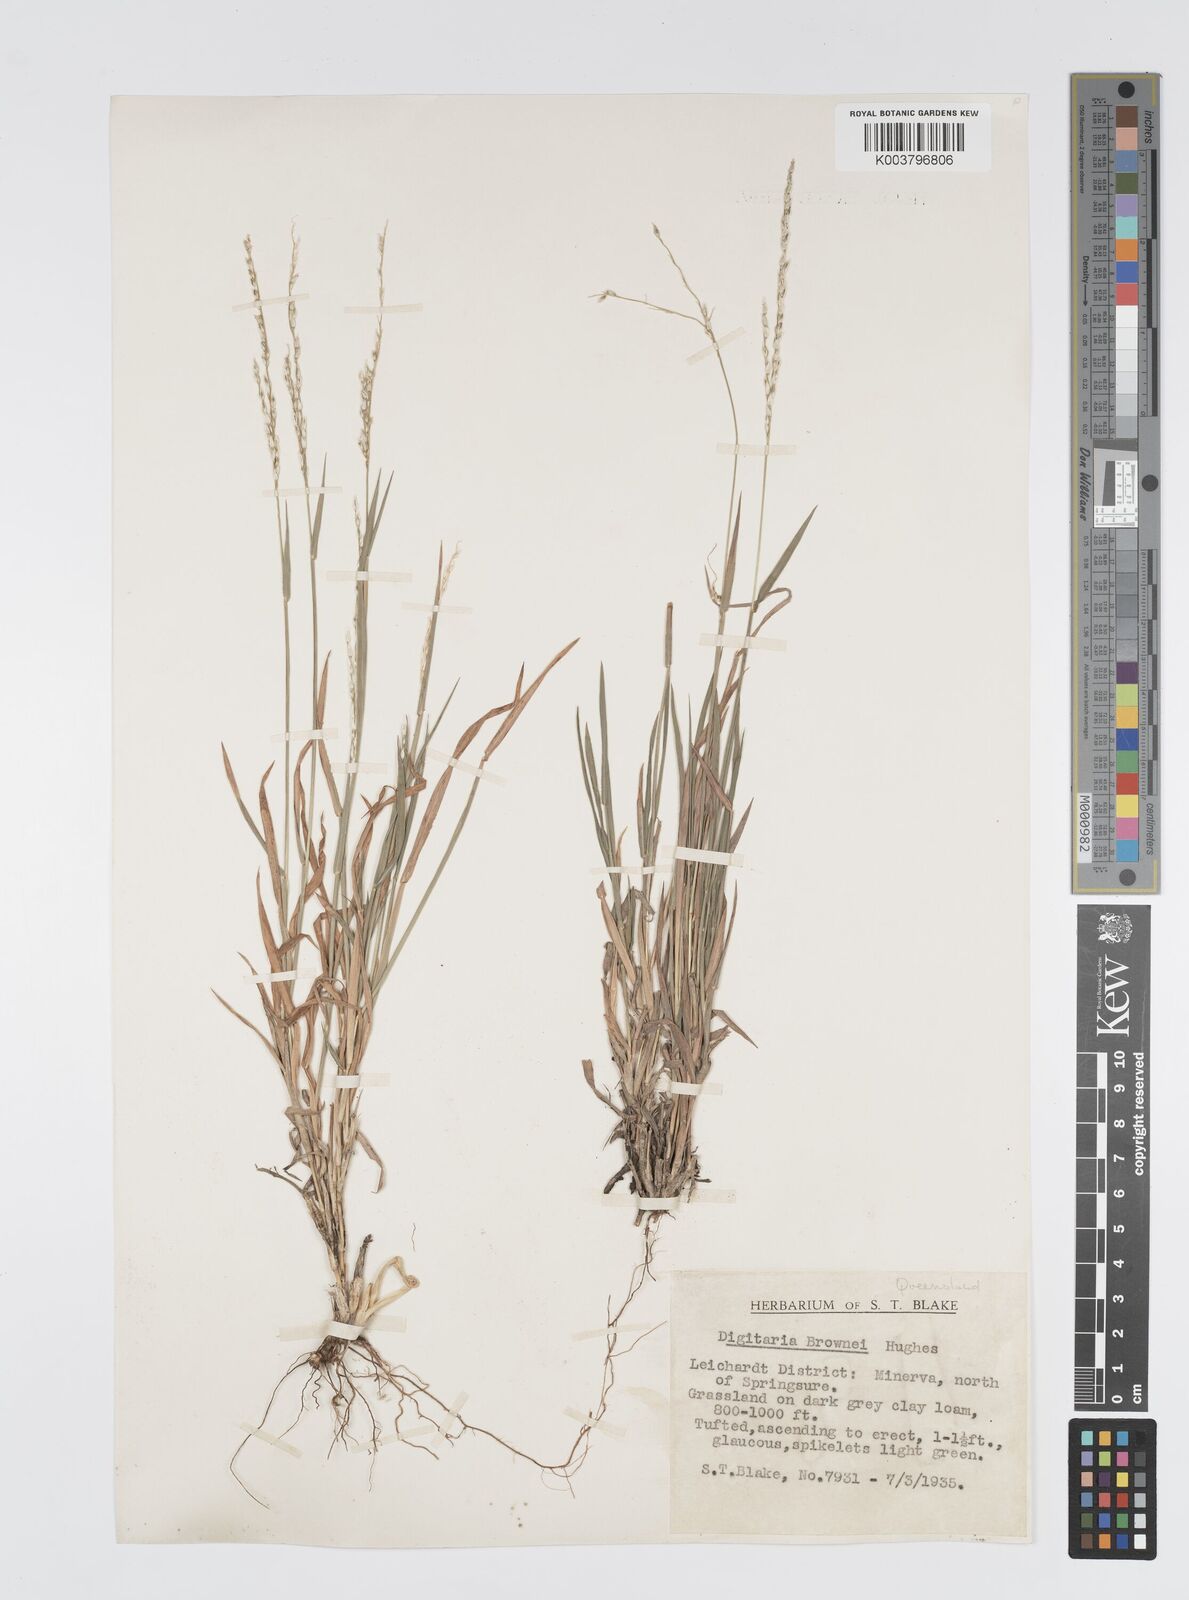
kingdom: Plantae
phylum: Tracheophyta
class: Liliopsida
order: Poales
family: Poaceae
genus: Digitaria
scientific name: Digitaria brownii
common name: Cotton grass
